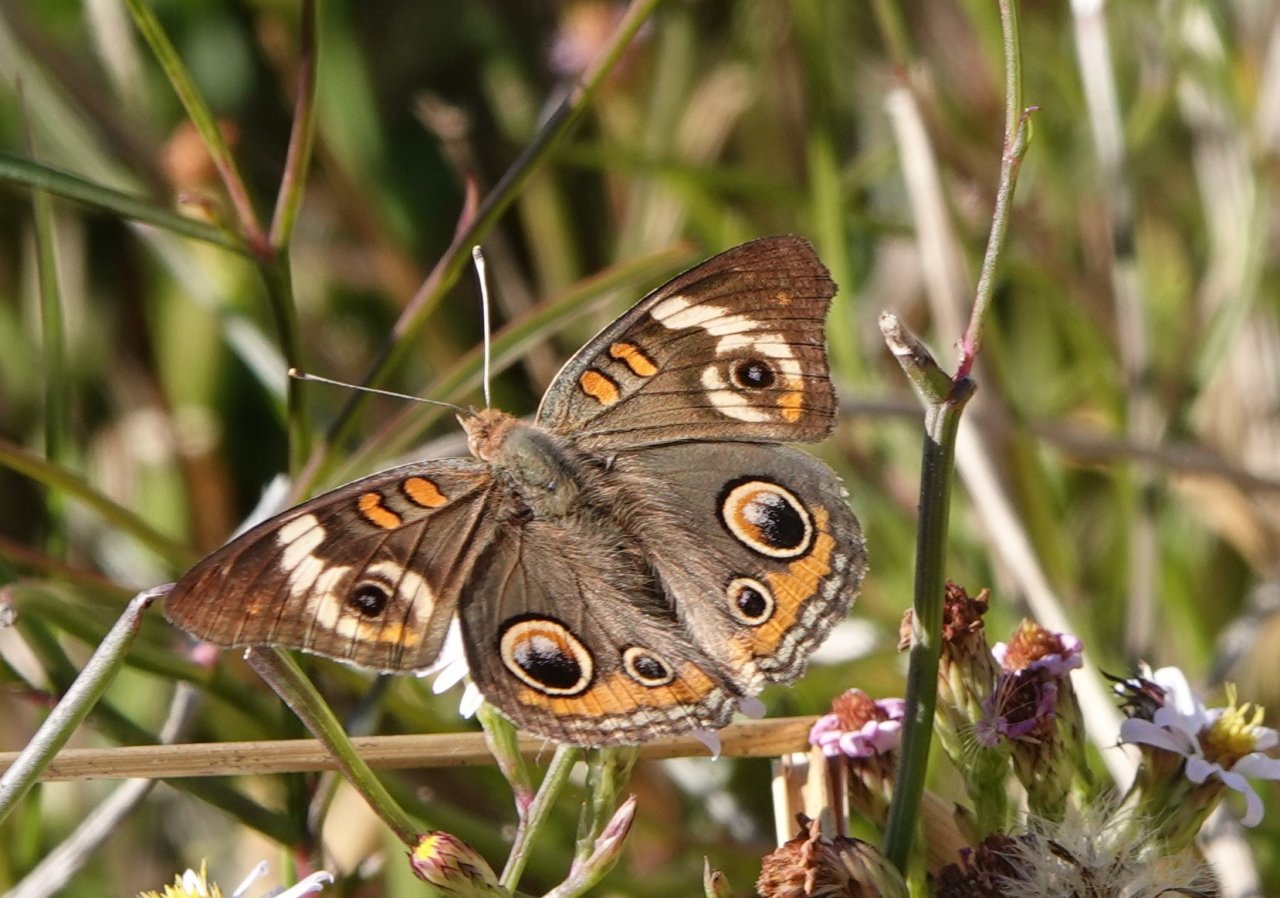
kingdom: Animalia
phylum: Arthropoda
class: Insecta
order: Lepidoptera
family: Nymphalidae
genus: Junonia
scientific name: Junonia coenia
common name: Common Buckeye
